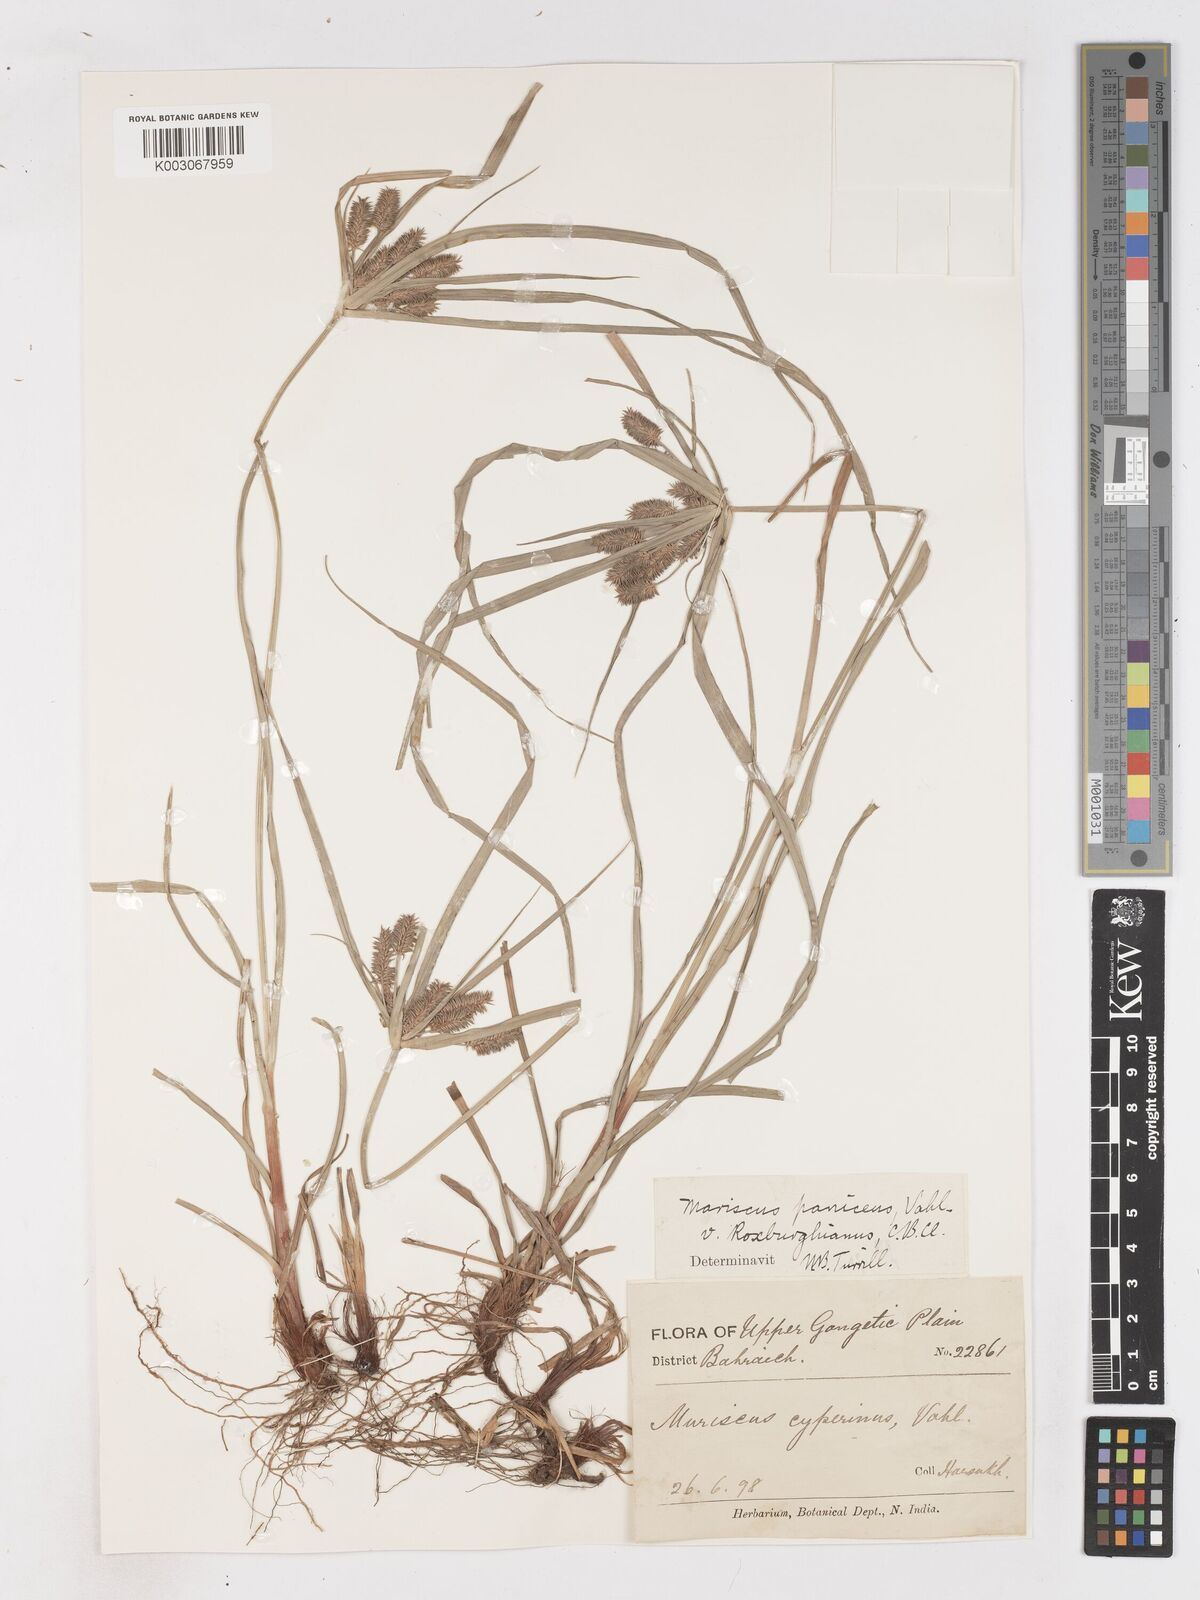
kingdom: Plantae
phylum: Tracheophyta
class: Liliopsida
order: Poales
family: Cyperaceae
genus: Cyperus
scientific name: Cyperus paniceus
